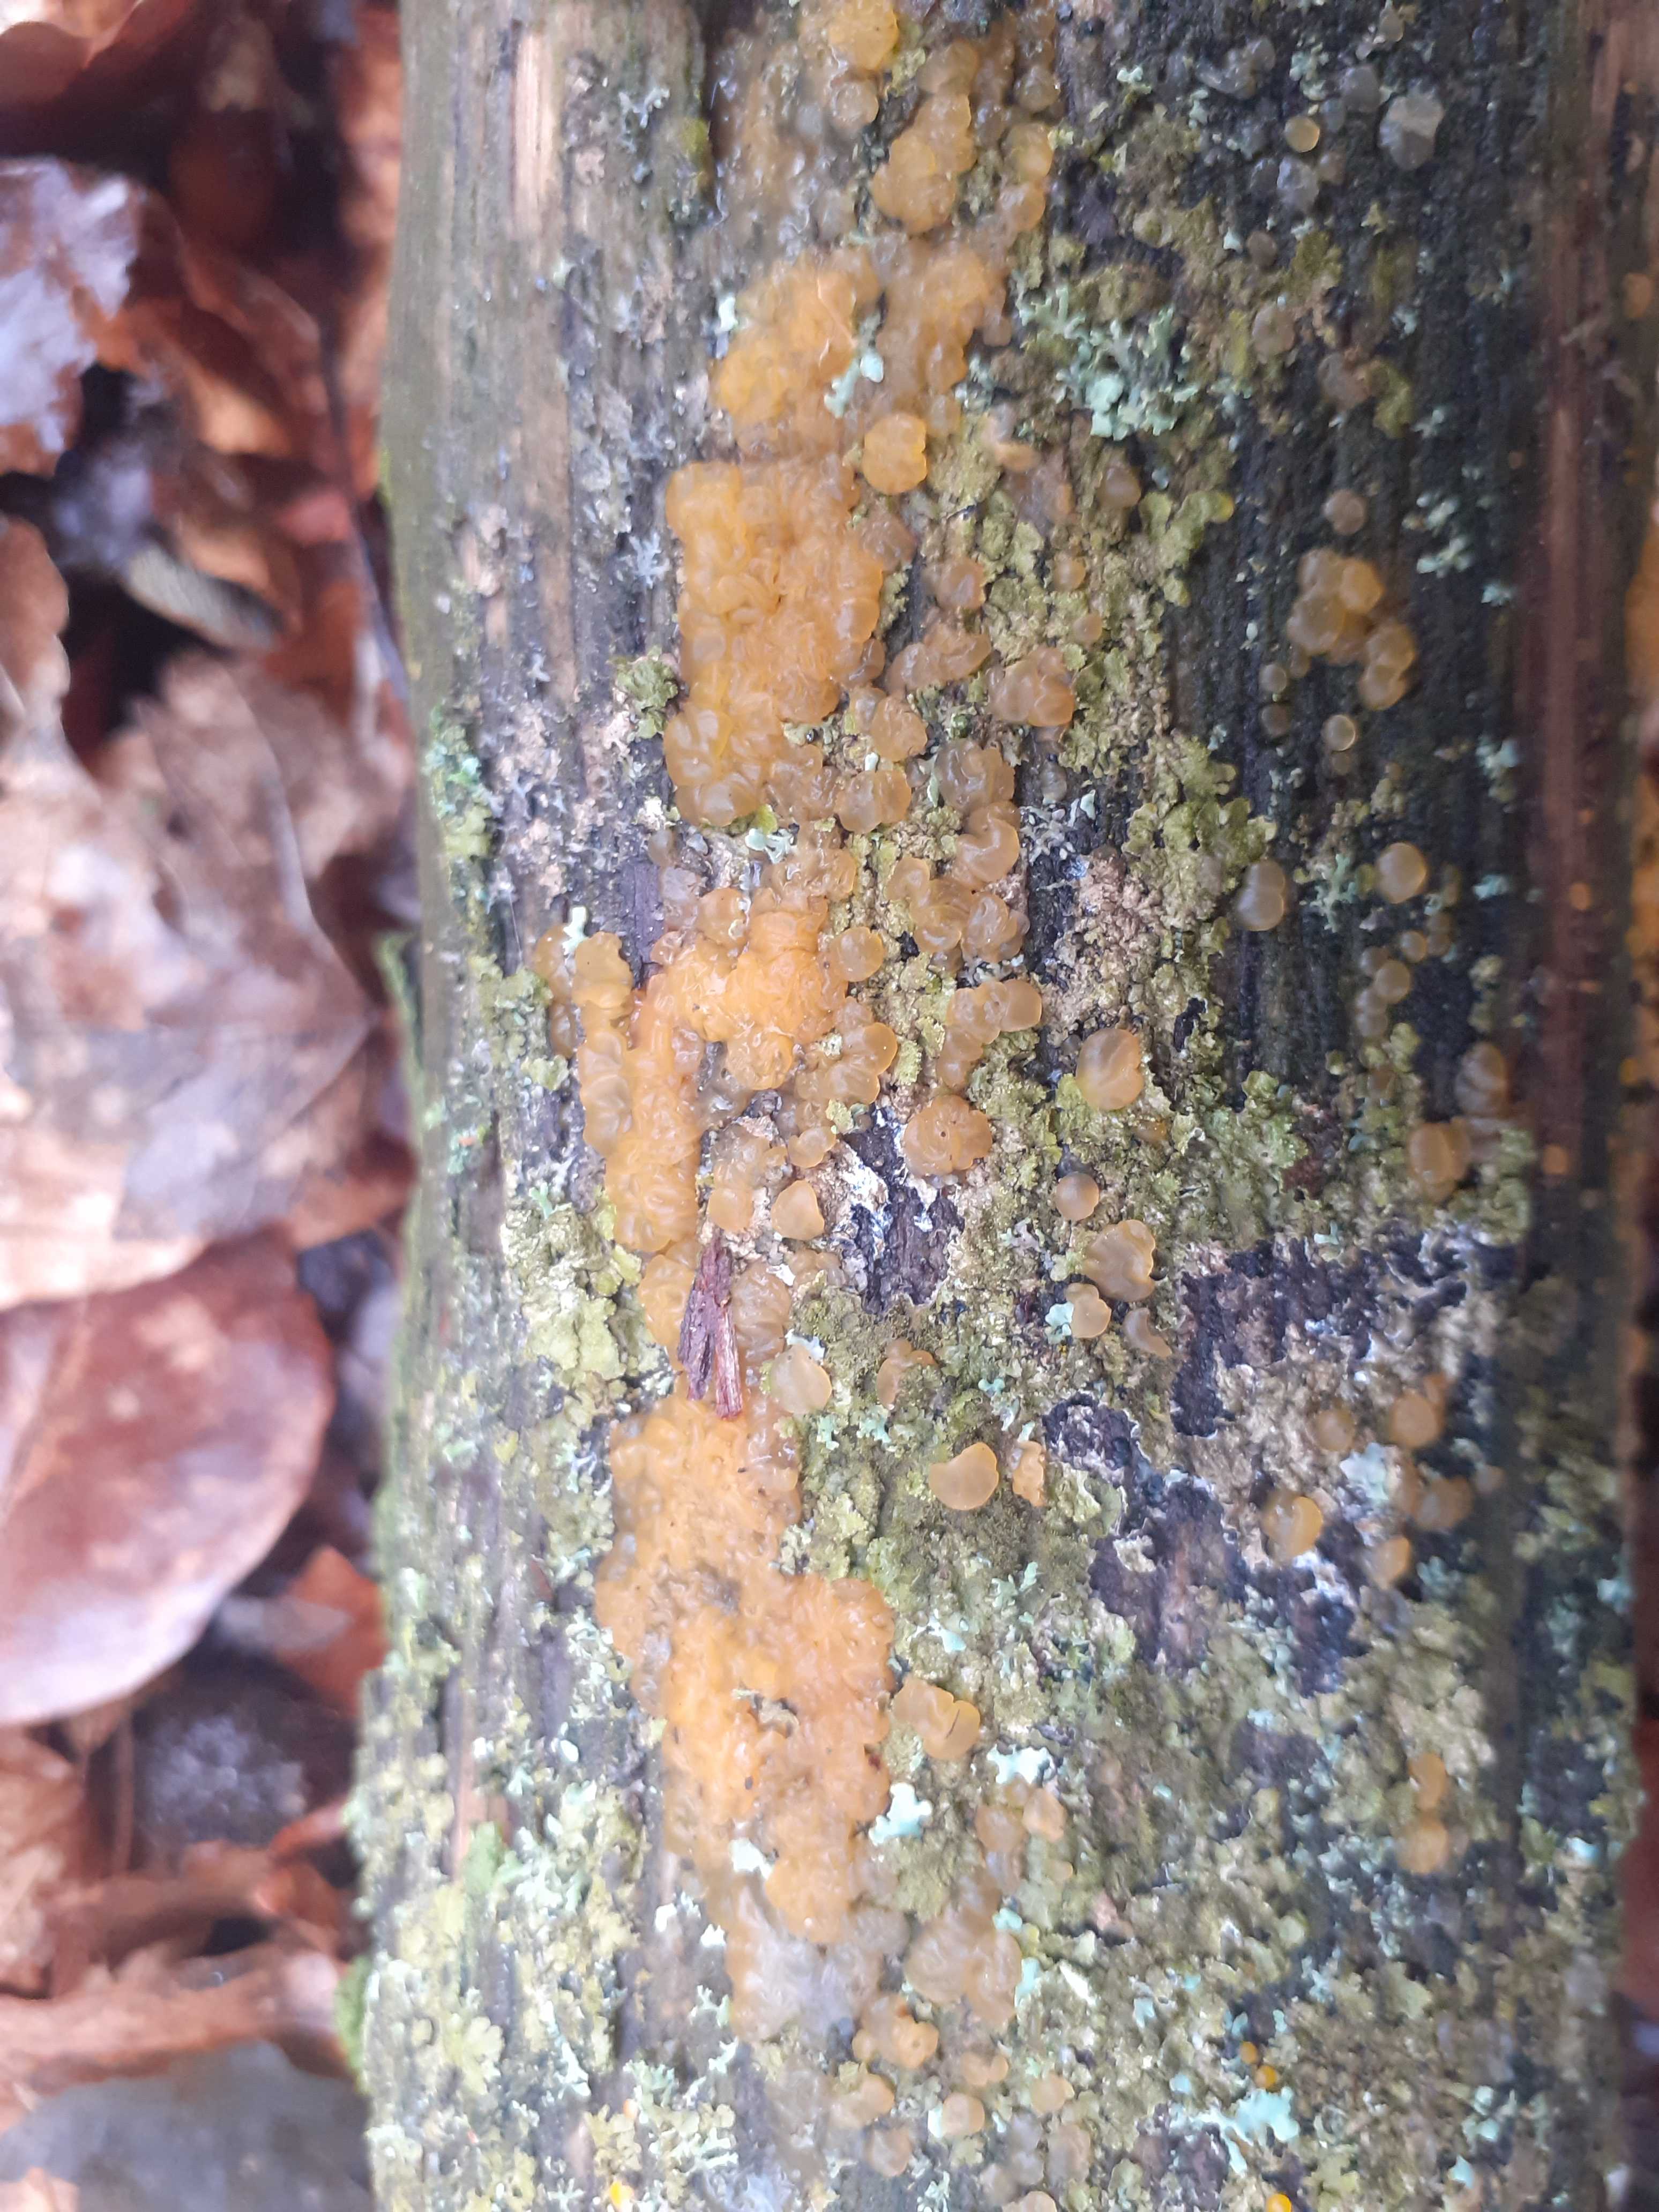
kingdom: Fungi
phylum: Basidiomycota
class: Dacrymycetes
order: Dacrymycetales
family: Dacrymycetaceae
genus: Dacrymyces
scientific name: Dacrymyces lacrymalis
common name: rynket tåresvamp
